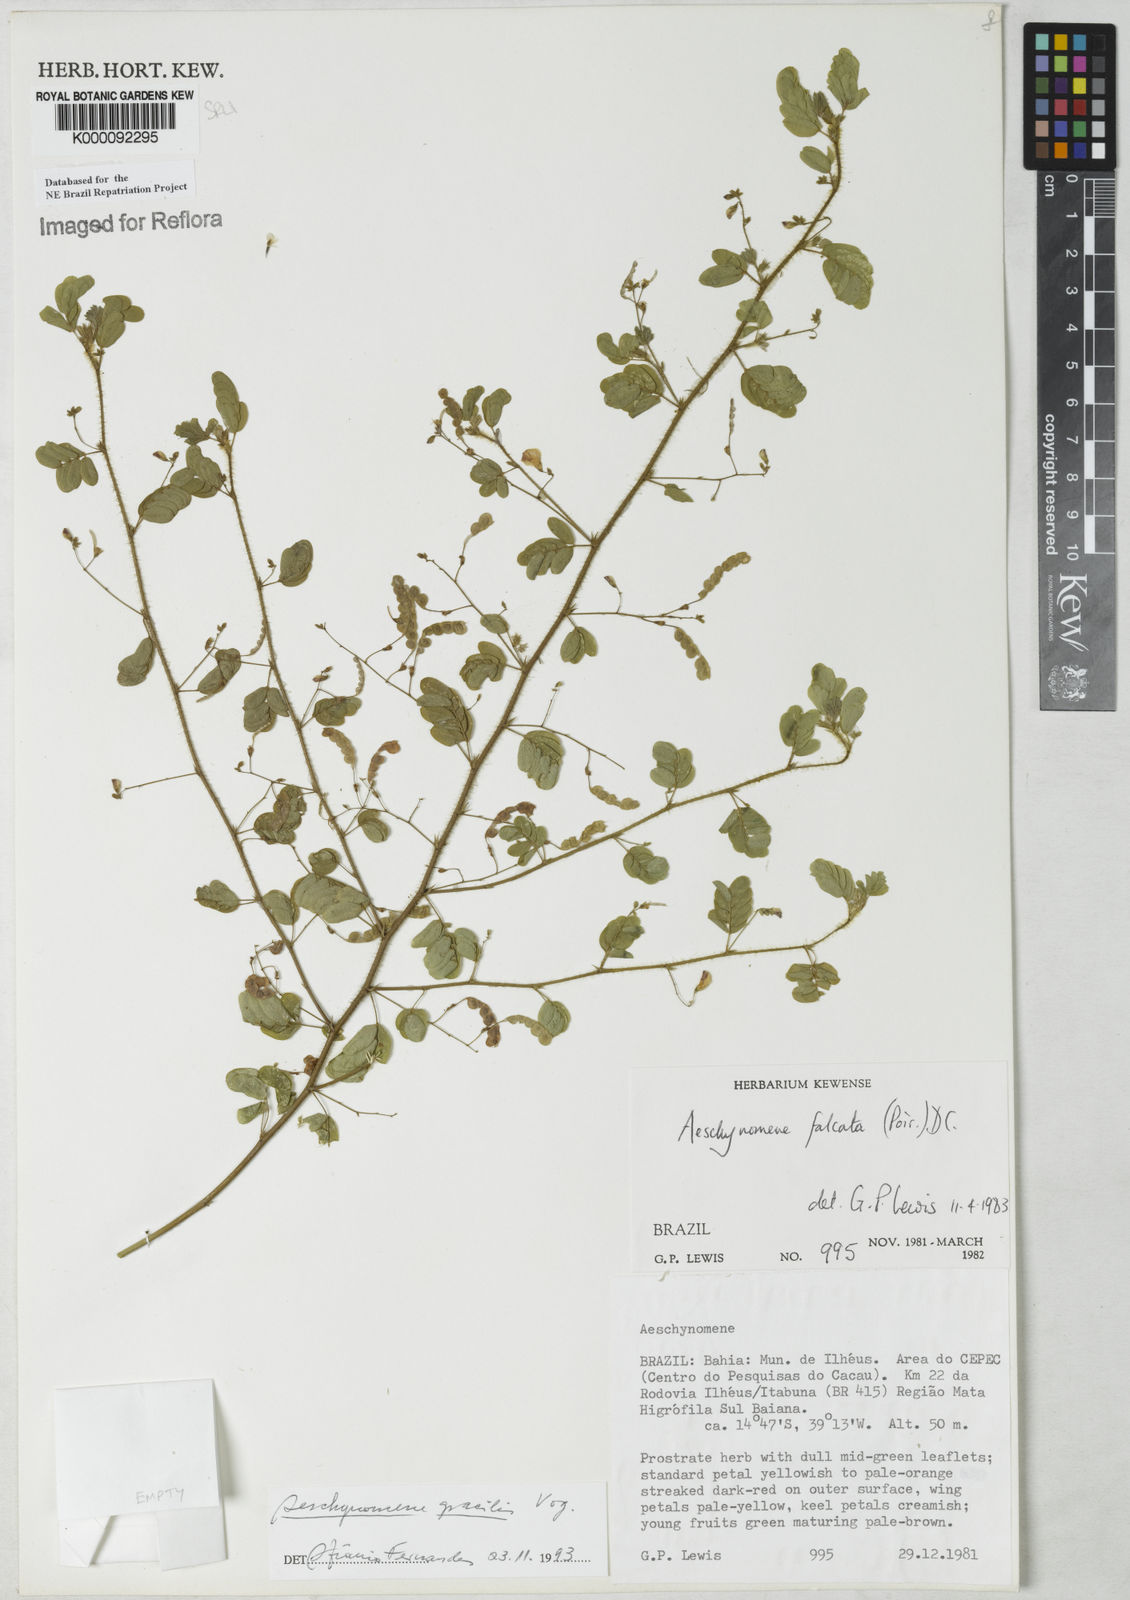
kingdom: Plantae
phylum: Tracheophyta
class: Magnoliopsida
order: Fabales
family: Fabaceae
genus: Ctenodon
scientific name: Ctenodon gracilis
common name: Puerto rico jointvetch
